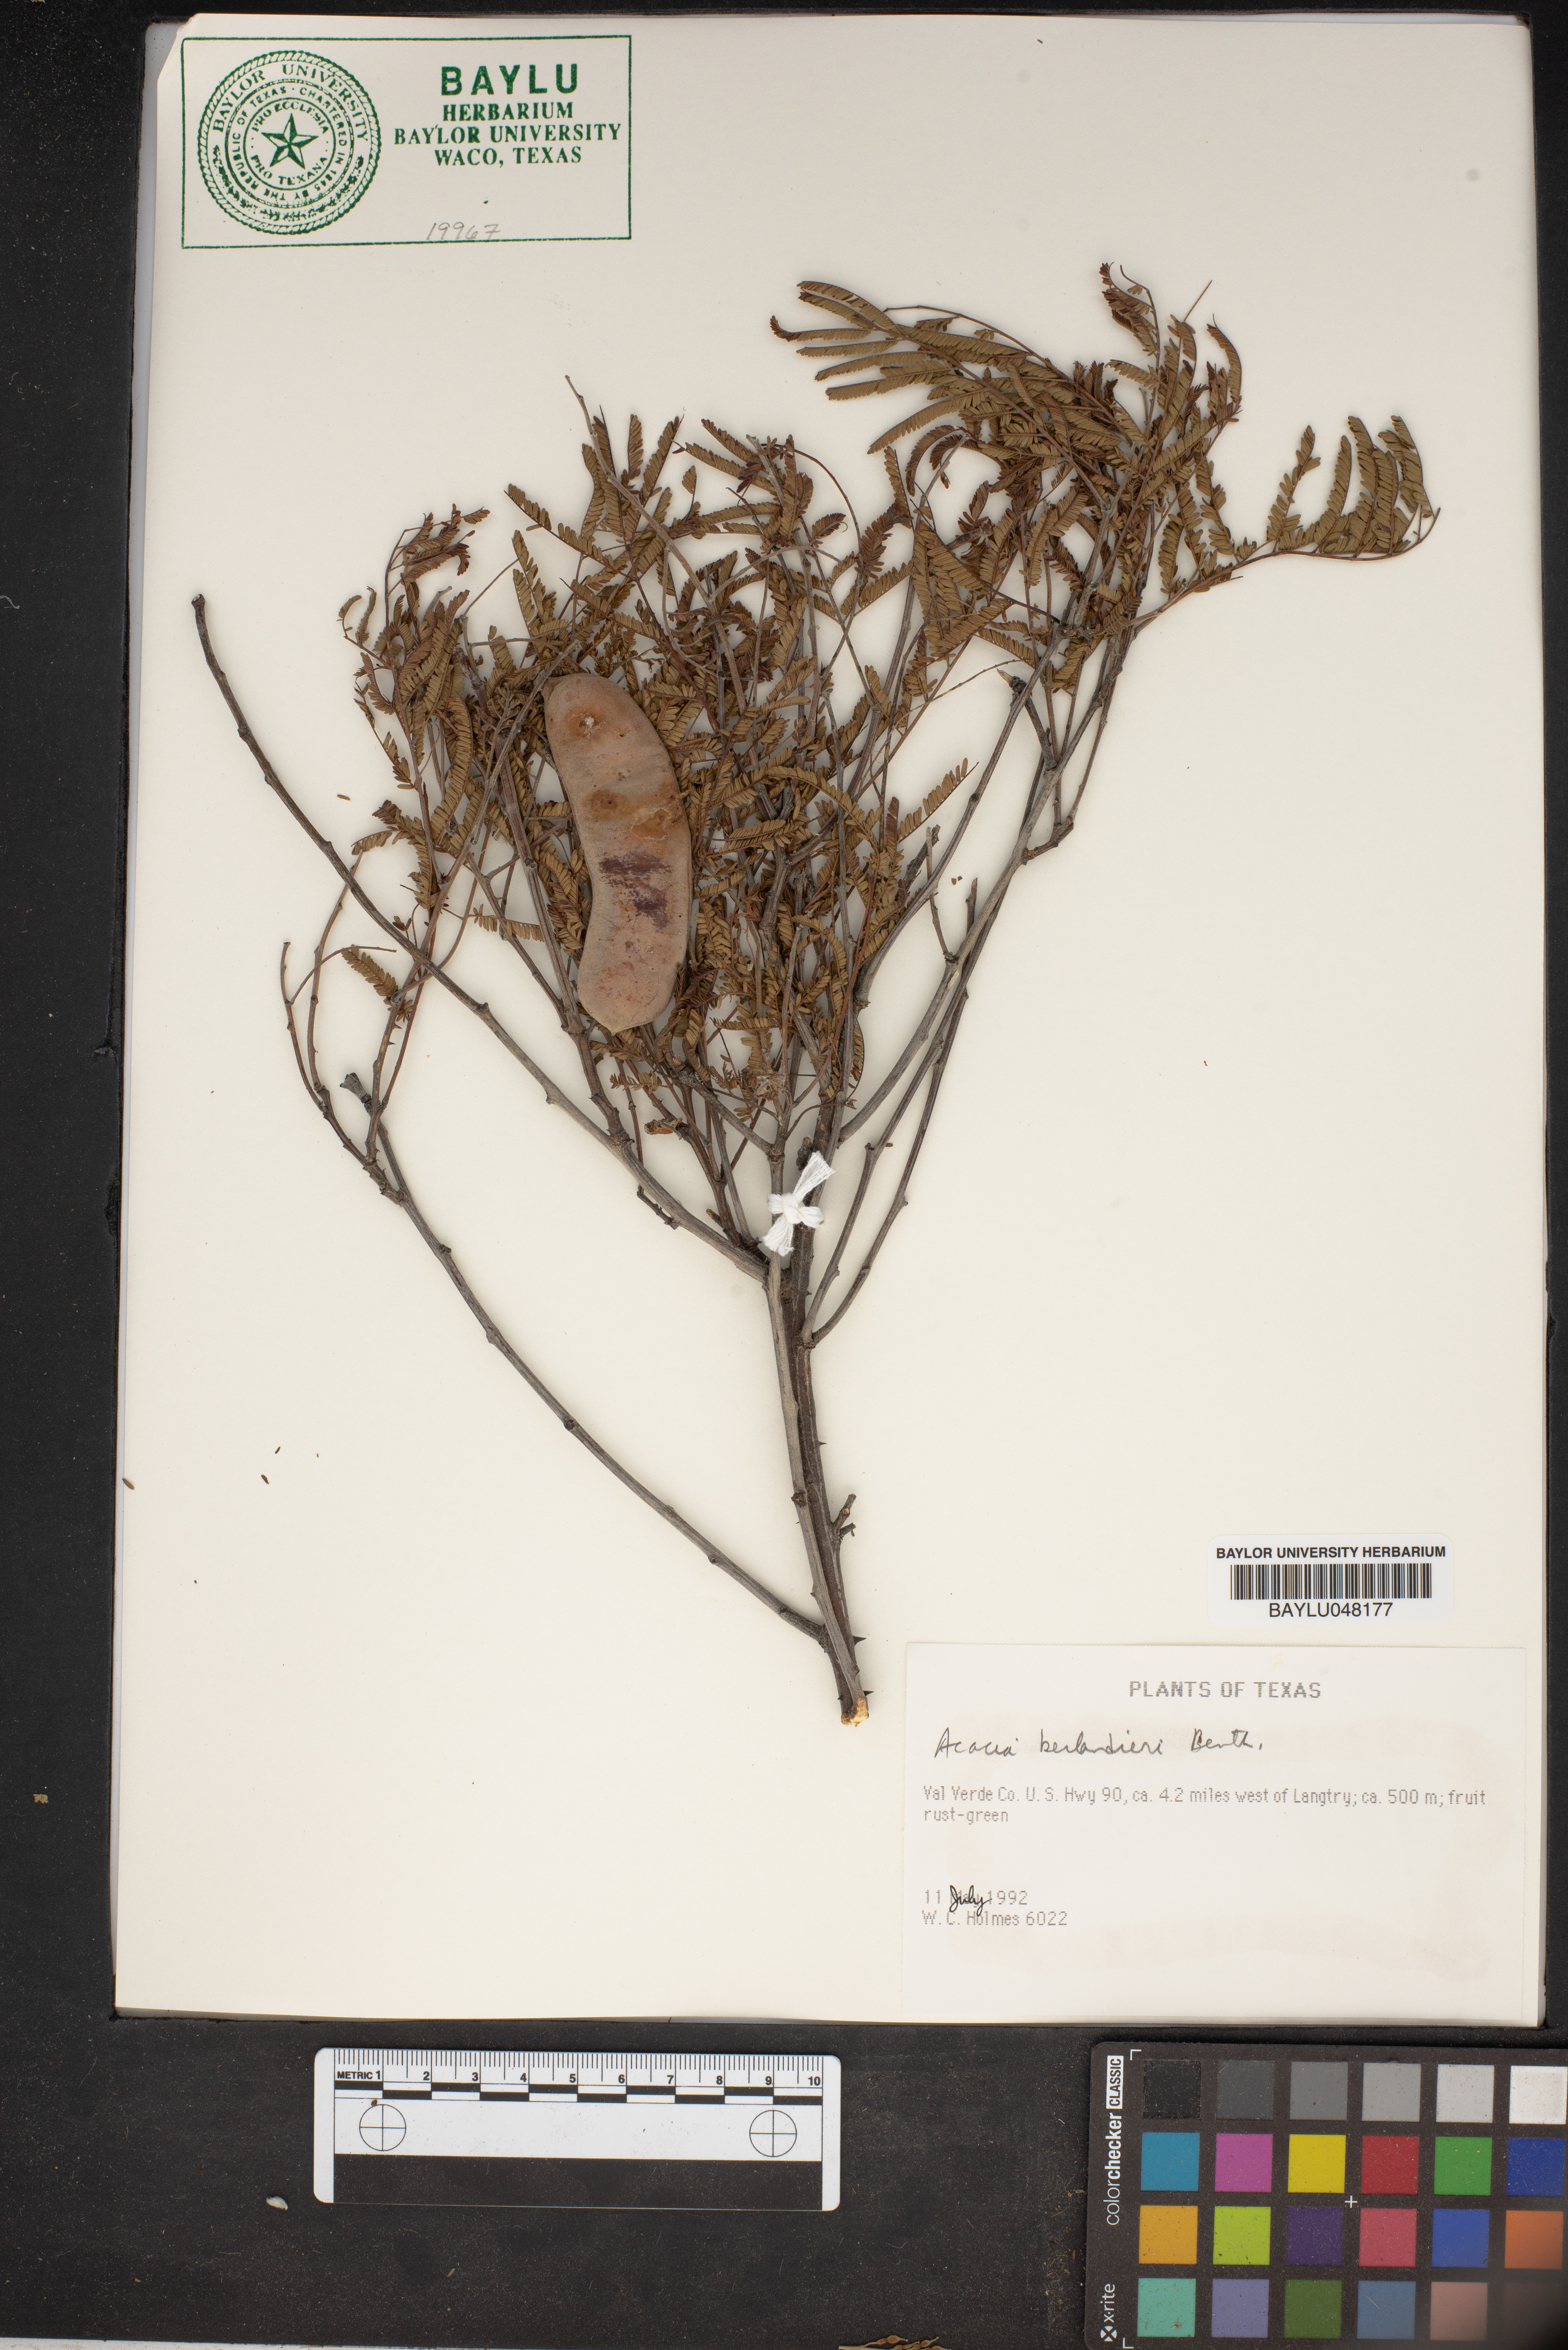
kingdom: Plantae
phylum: Tracheophyta
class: Magnoliopsida
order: Fabales
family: Fabaceae
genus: Senegalia
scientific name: Senegalia berlandieri
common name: Berlandier acacia
